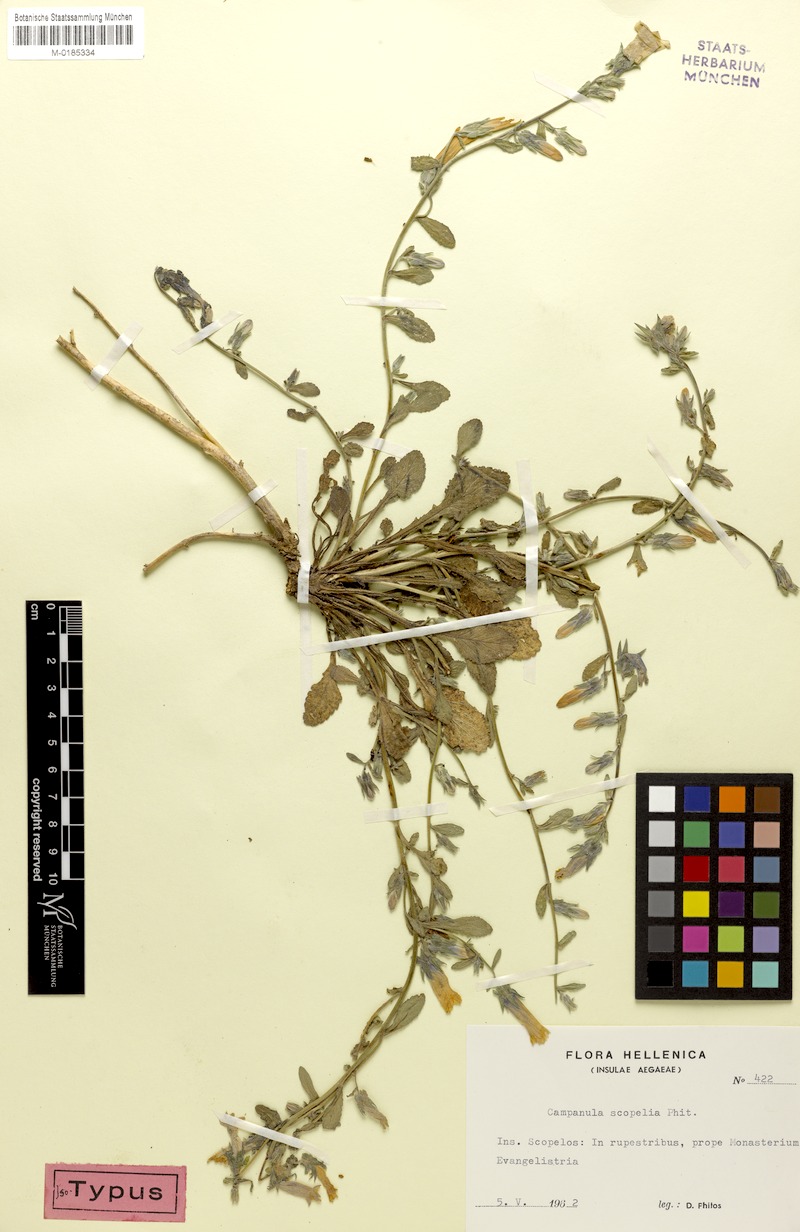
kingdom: Plantae
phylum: Tracheophyta
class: Magnoliopsida
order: Asterales
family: Campanulaceae
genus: Campanula
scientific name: Campanula scopelia
